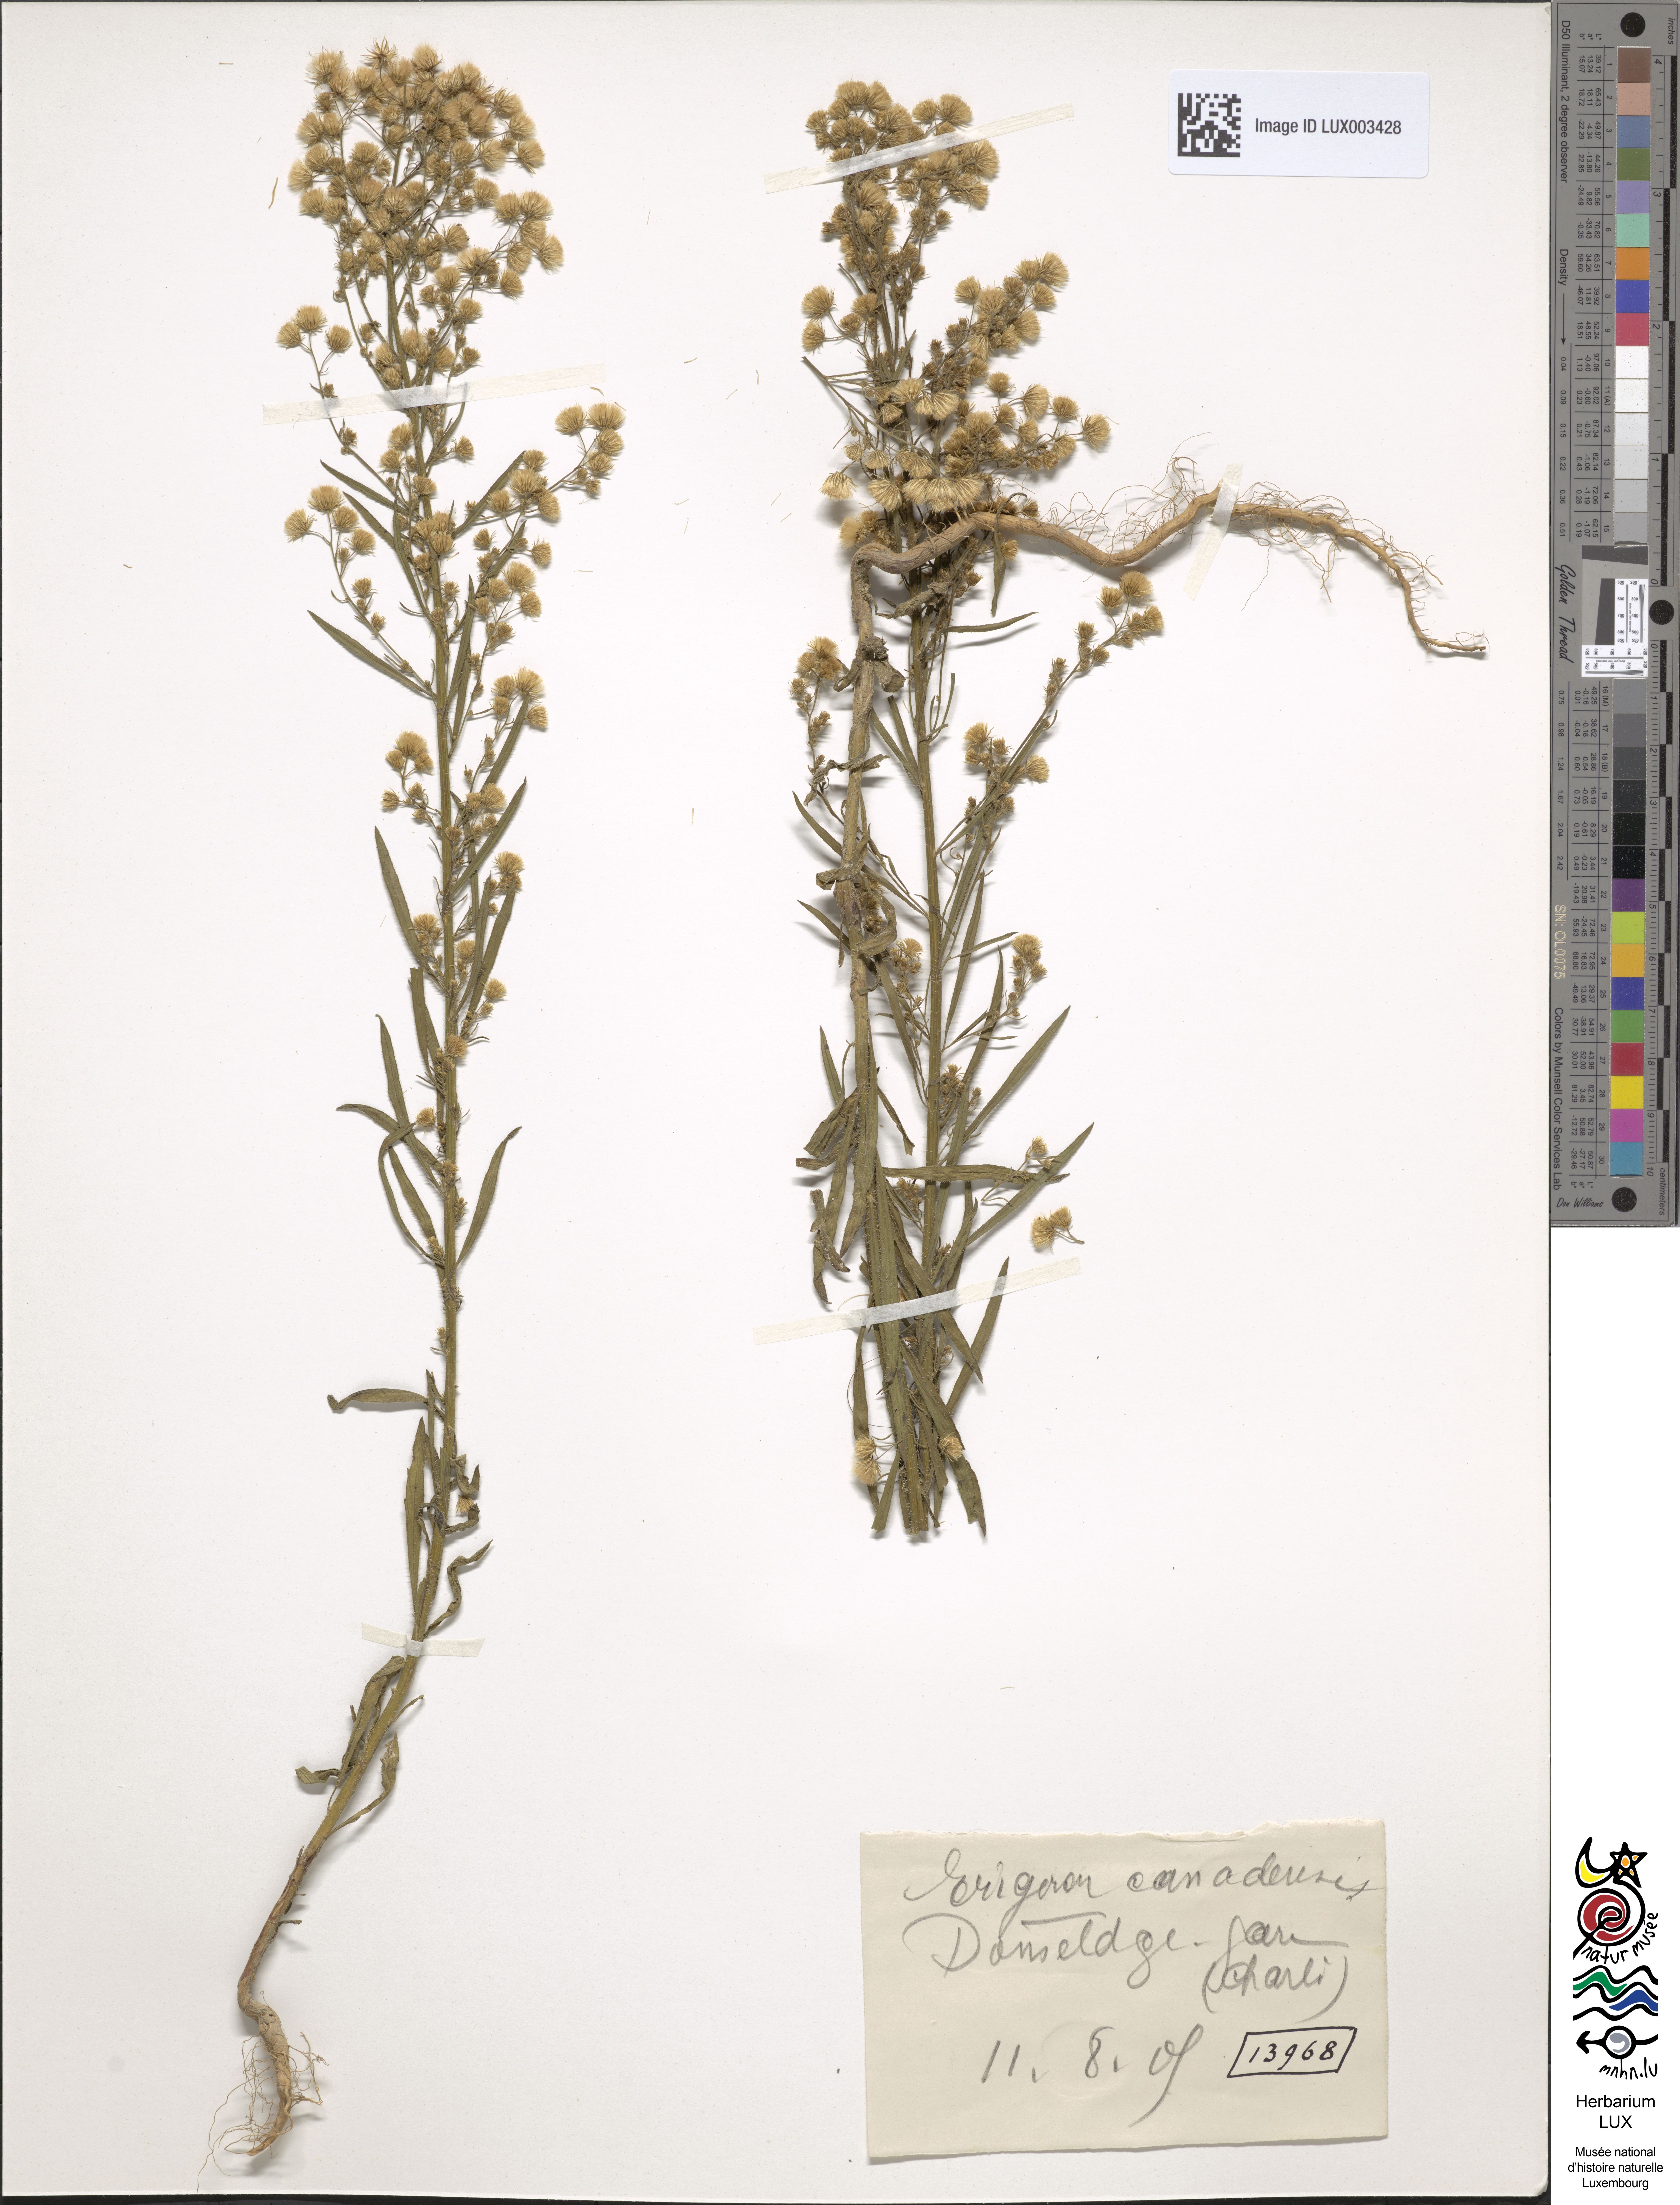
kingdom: Plantae
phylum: Tracheophyta
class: Magnoliopsida
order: Asterales
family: Asteraceae
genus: Erigeron
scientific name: Erigeron canadensis
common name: Canadian fleabane
